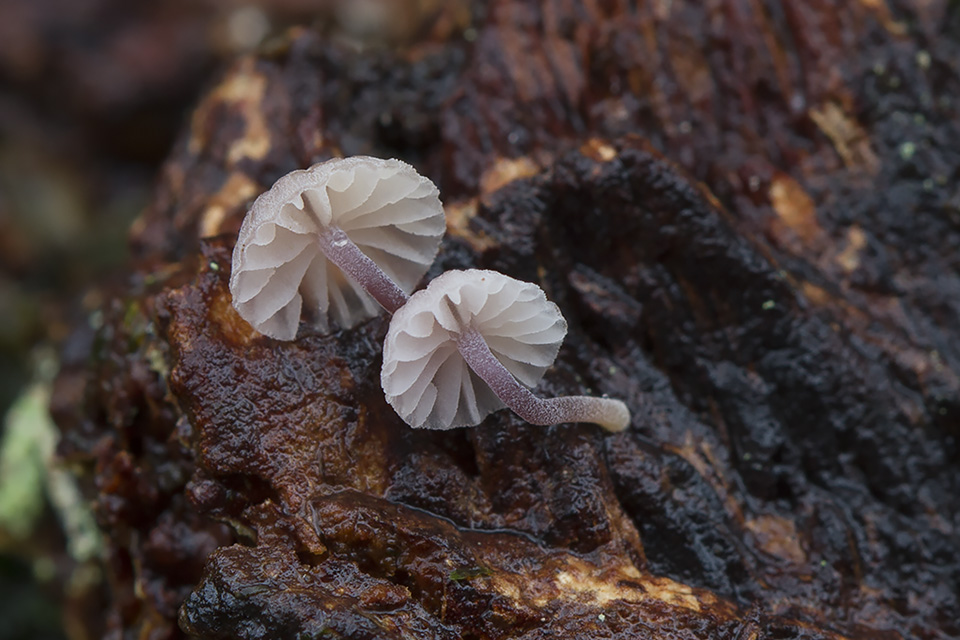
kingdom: Fungi
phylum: Basidiomycota
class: Agaricomycetes
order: Agaricales
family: Mycenaceae
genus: Mycena
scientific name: Mycena meliigena
